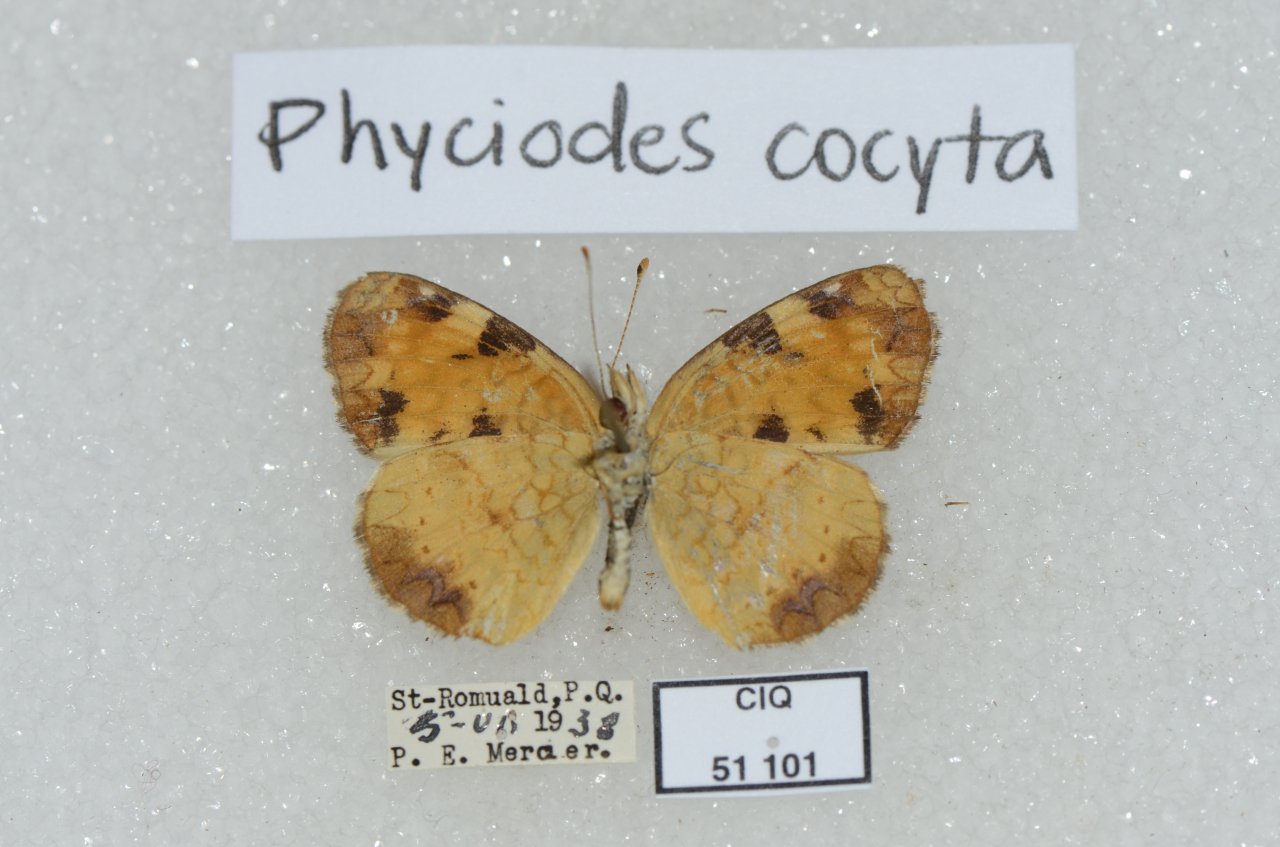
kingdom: Animalia
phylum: Arthropoda
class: Insecta
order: Lepidoptera
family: Nymphalidae
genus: Phyciodes
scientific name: Phyciodes tharos
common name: Northern Crescent
